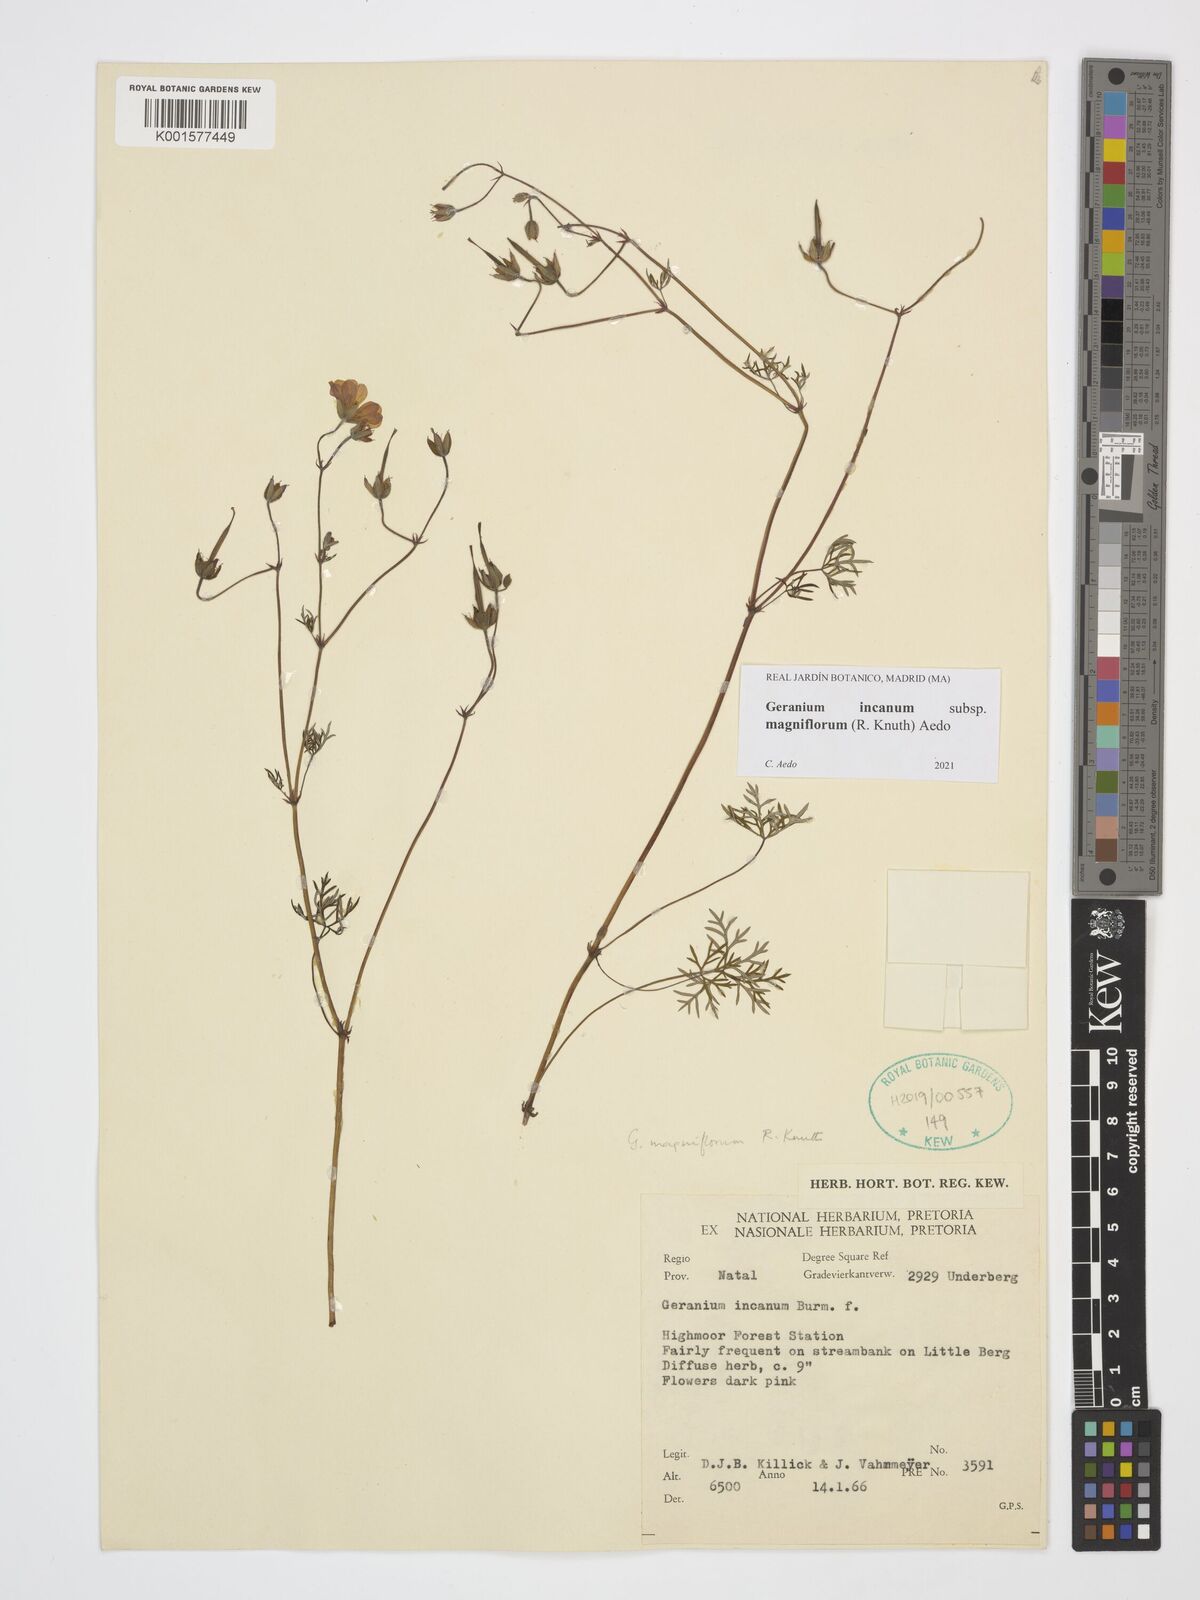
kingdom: Plantae
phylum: Tracheophyta
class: Magnoliopsida
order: Geraniales
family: Geraniaceae
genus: Geranium
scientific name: Geranium incanum
